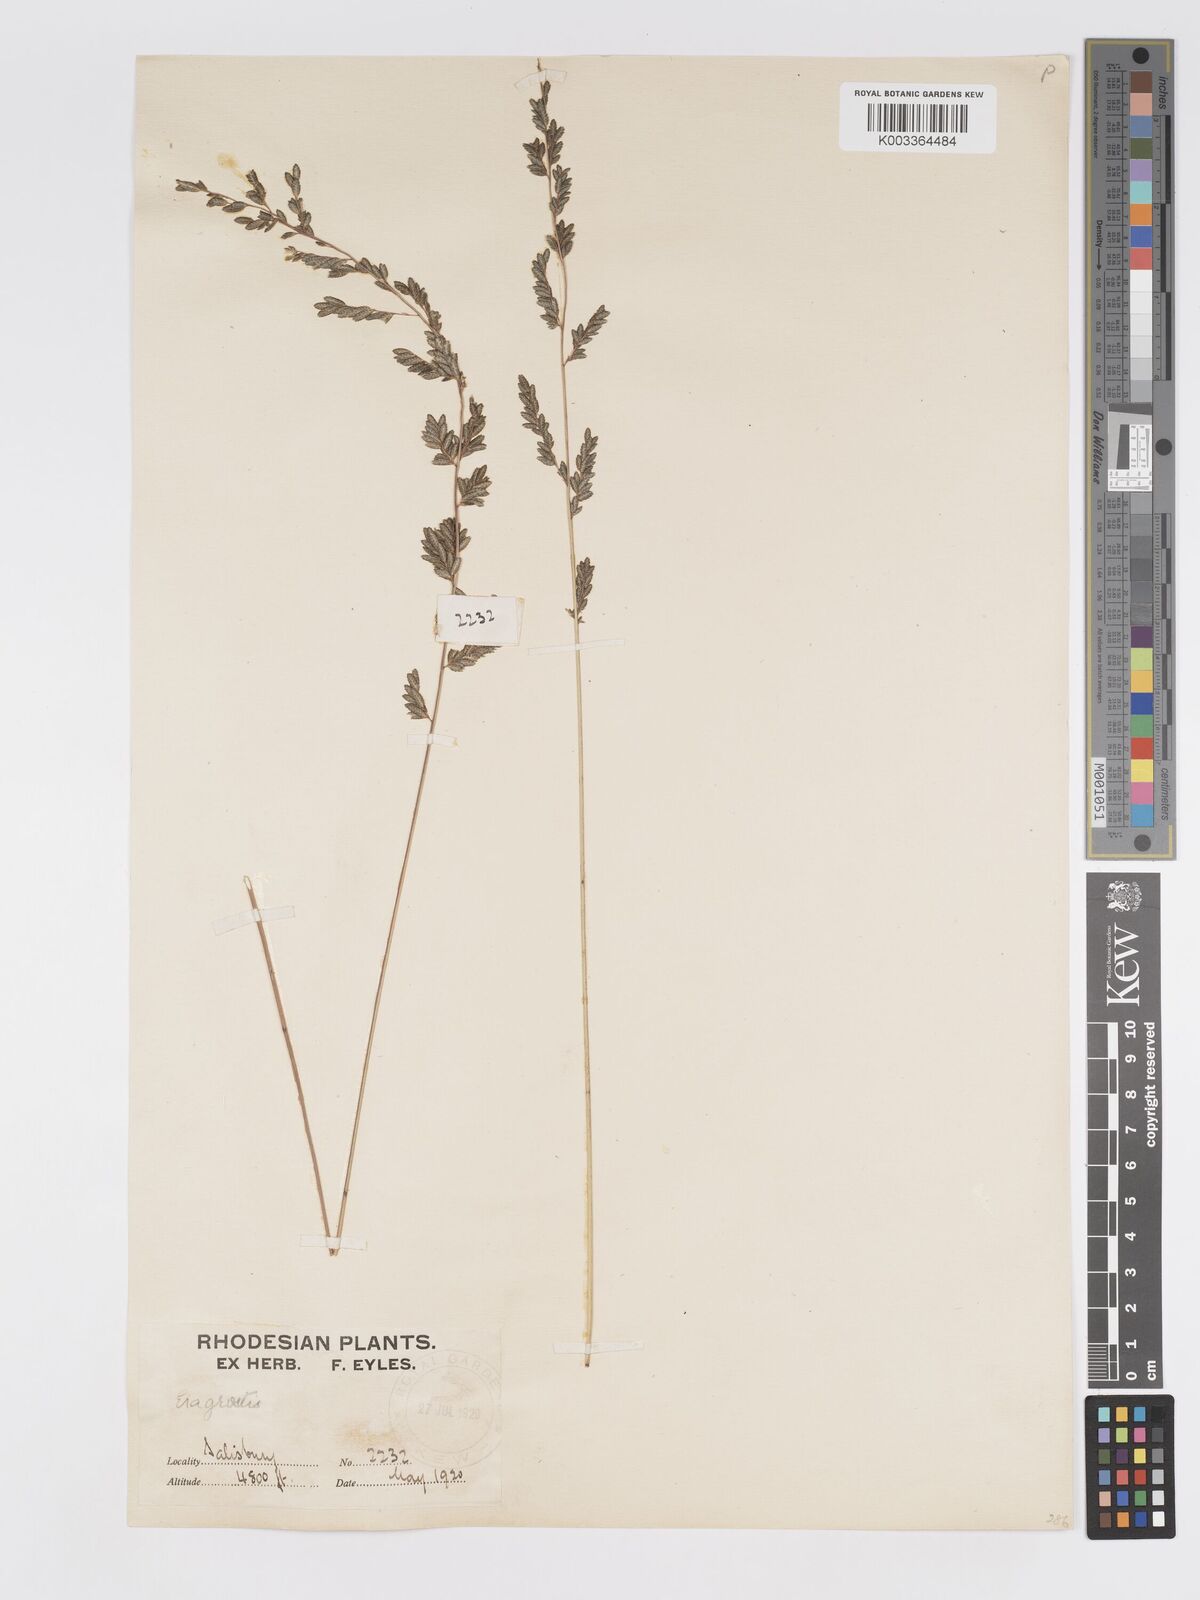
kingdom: Plantae
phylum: Tracheophyta
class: Liliopsida
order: Poales
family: Poaceae
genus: Eragrostis
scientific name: Eragrostis sclerantha
